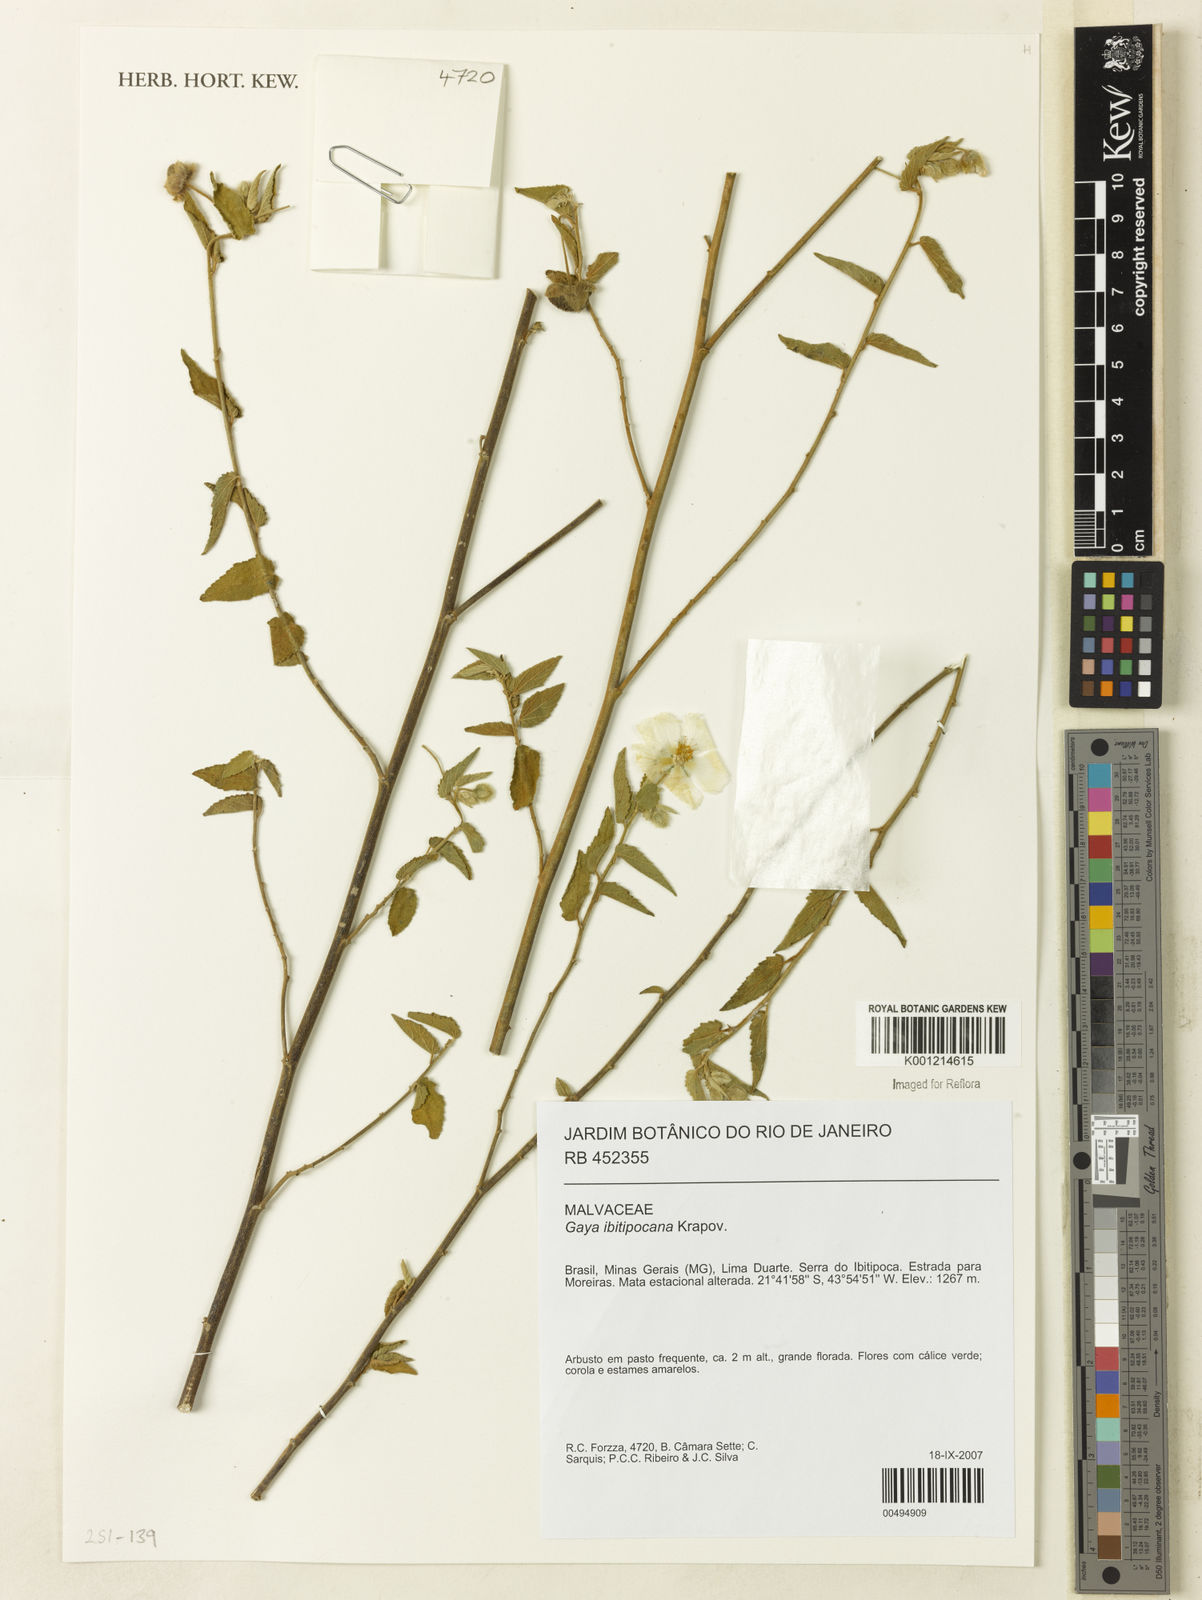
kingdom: Plantae
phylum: Tracheophyta
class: Magnoliopsida
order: Malvales
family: Malvaceae
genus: Gaya
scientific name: Gaya ibitipocana
